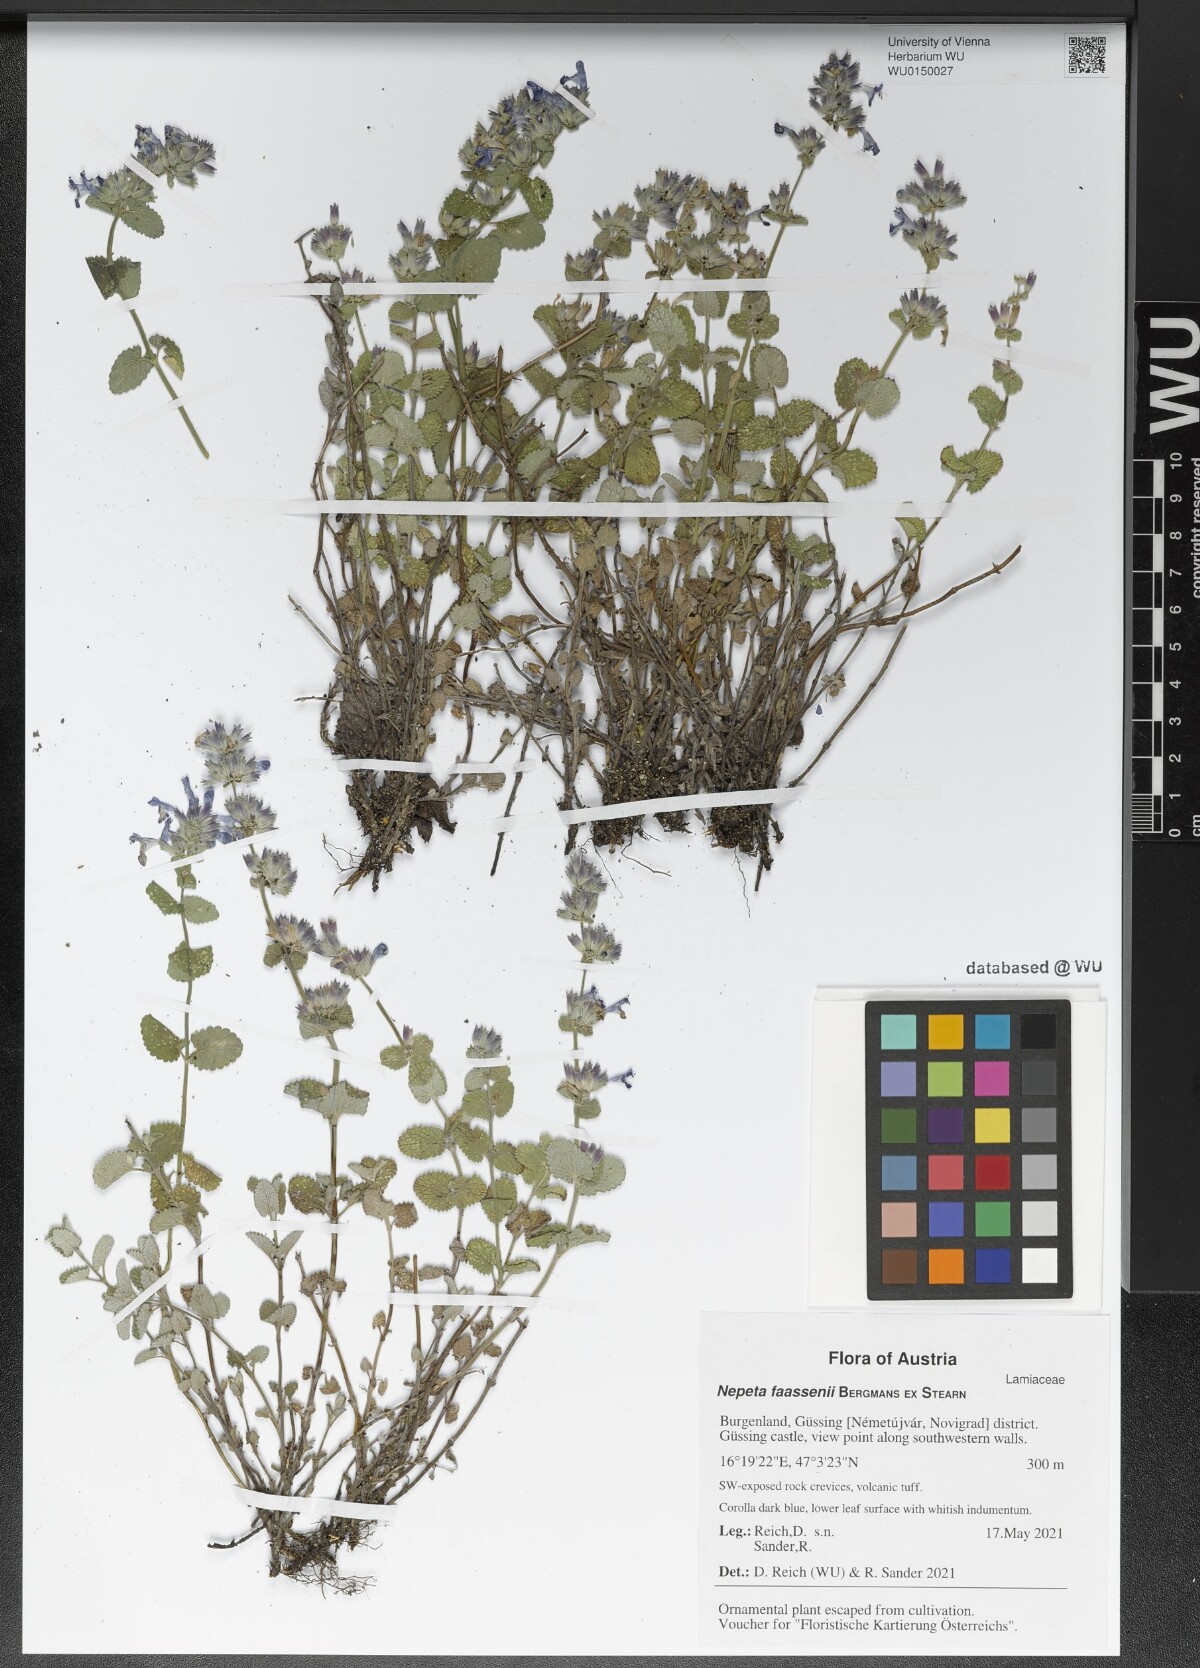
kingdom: Plantae
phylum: Tracheophyta
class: Magnoliopsida
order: Lamiales
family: Lamiaceae
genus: Nepeta
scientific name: Nepeta faassenii
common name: Catmint
